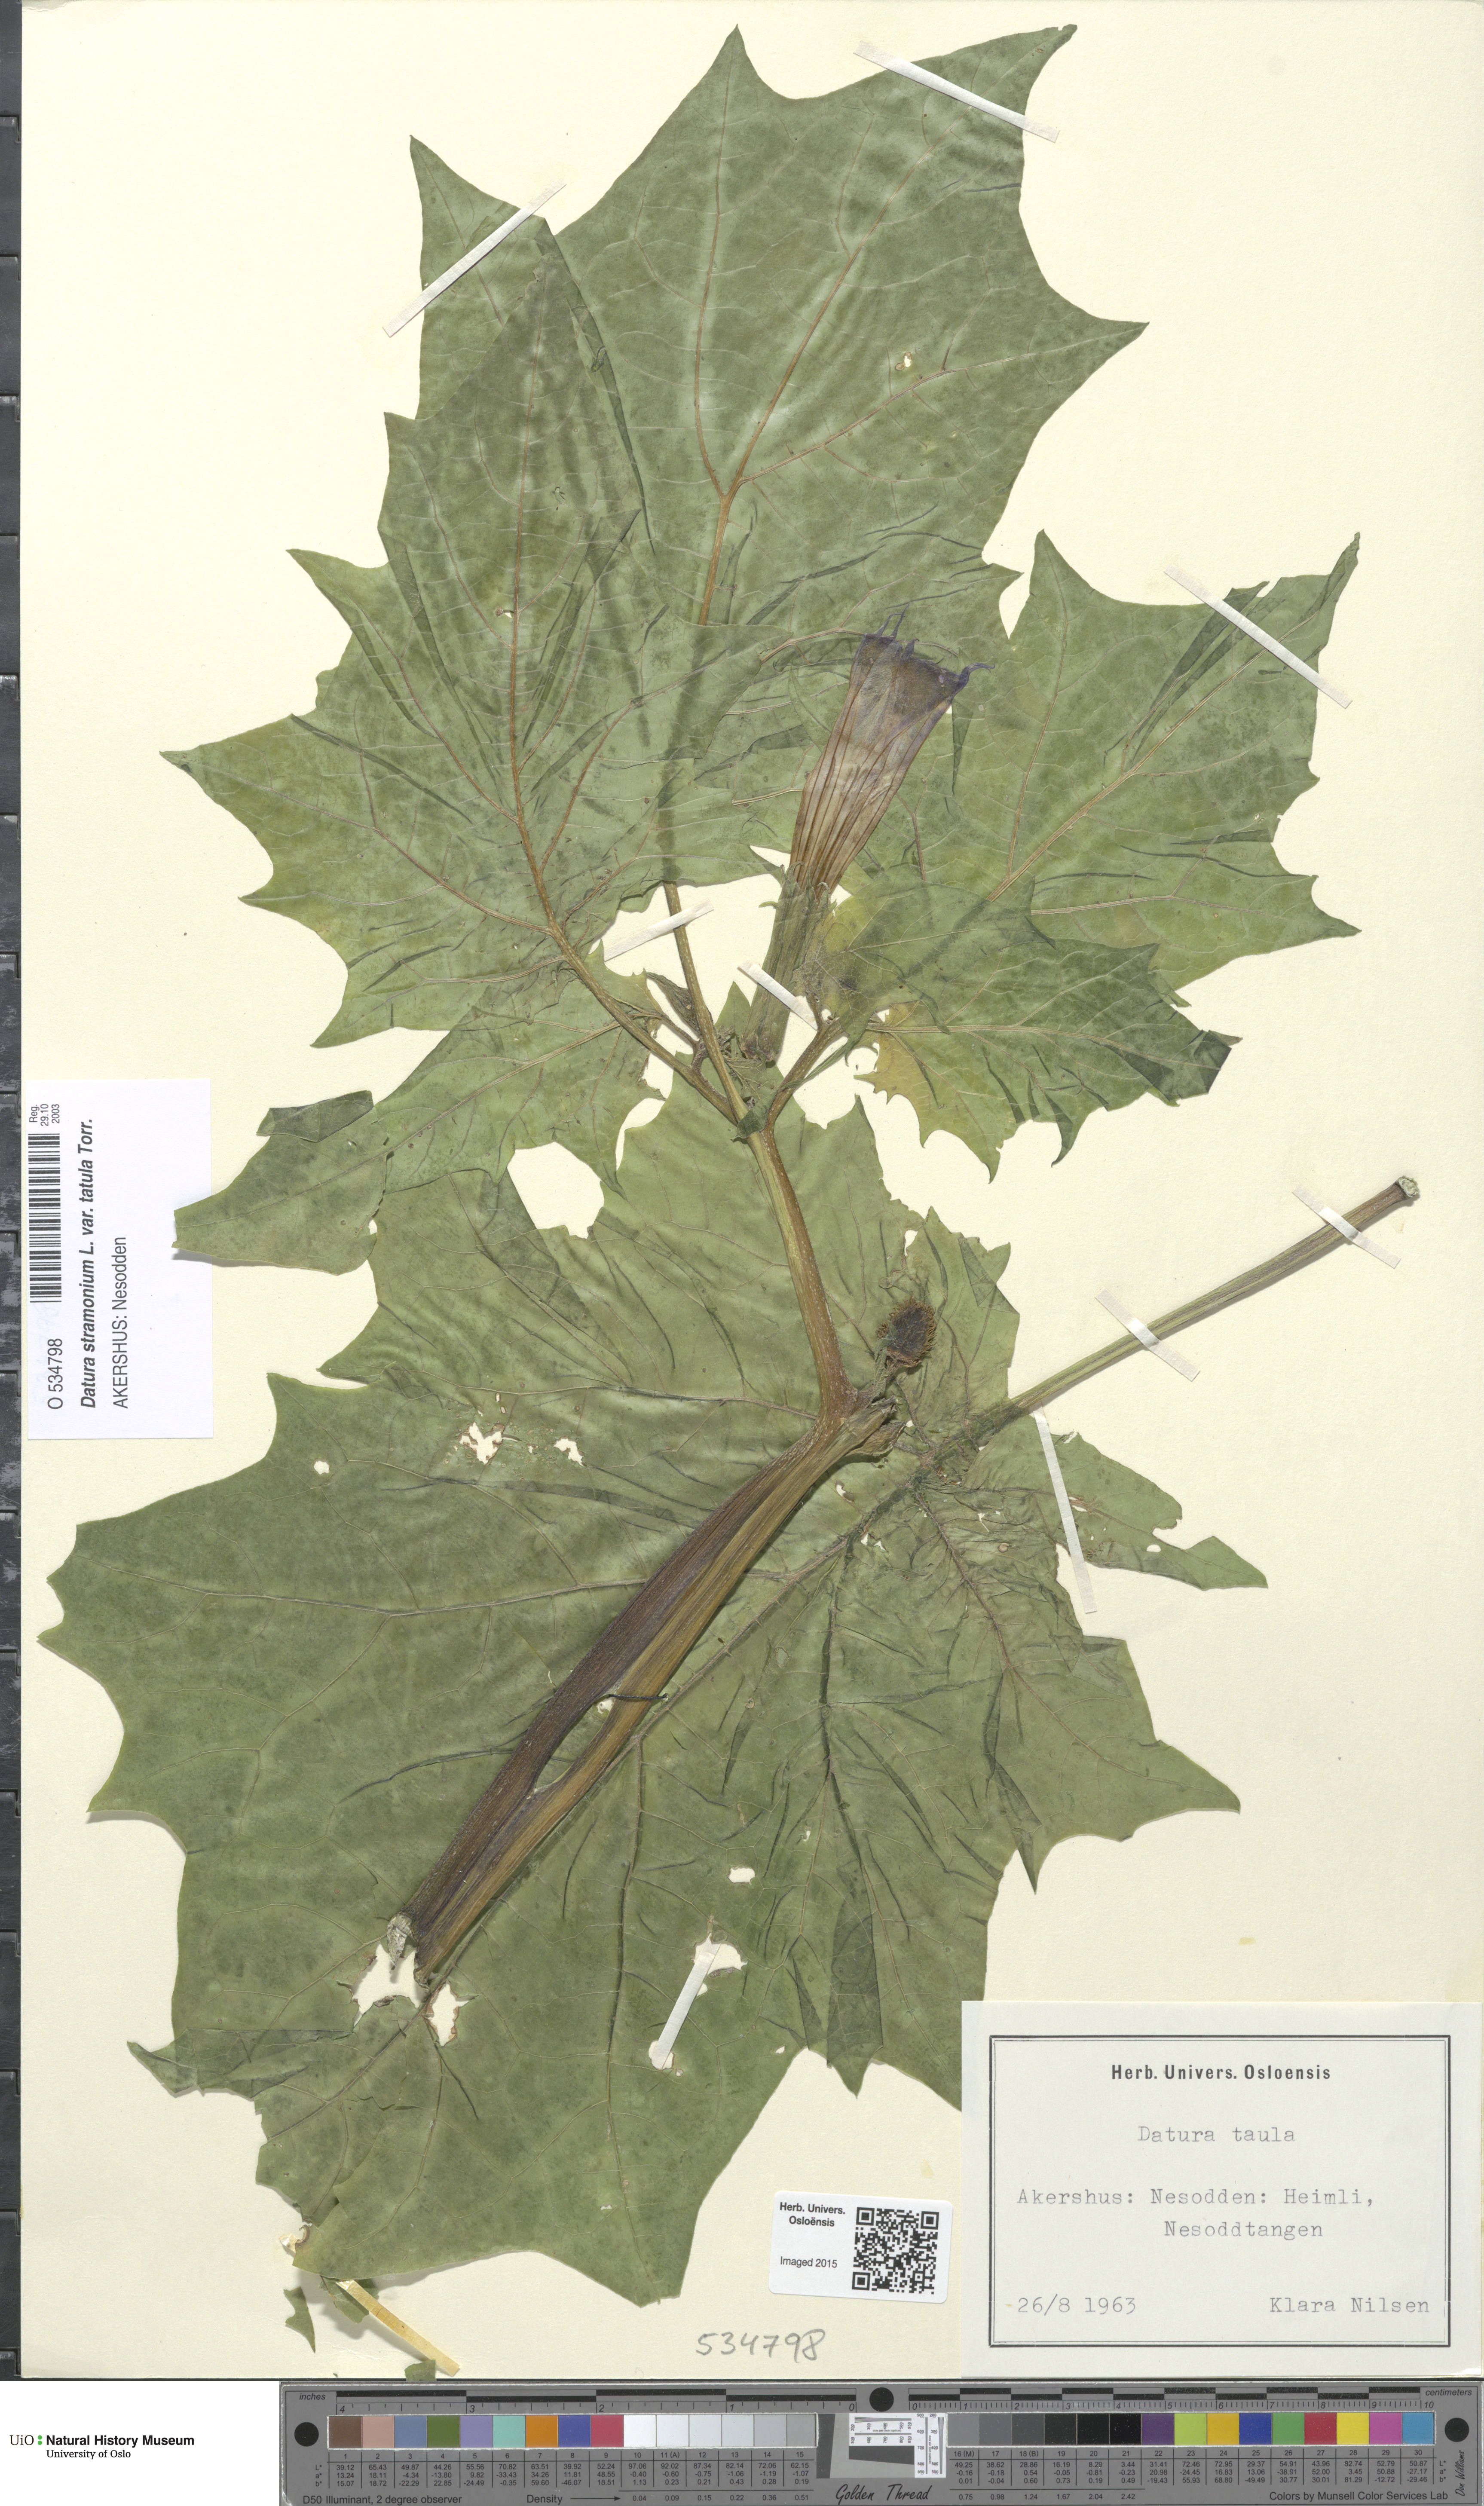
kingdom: Plantae
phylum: Tracheophyta
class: Magnoliopsida
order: Solanales
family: Solanaceae
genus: Datura
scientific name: Datura stramonium
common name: Thorn-apple
